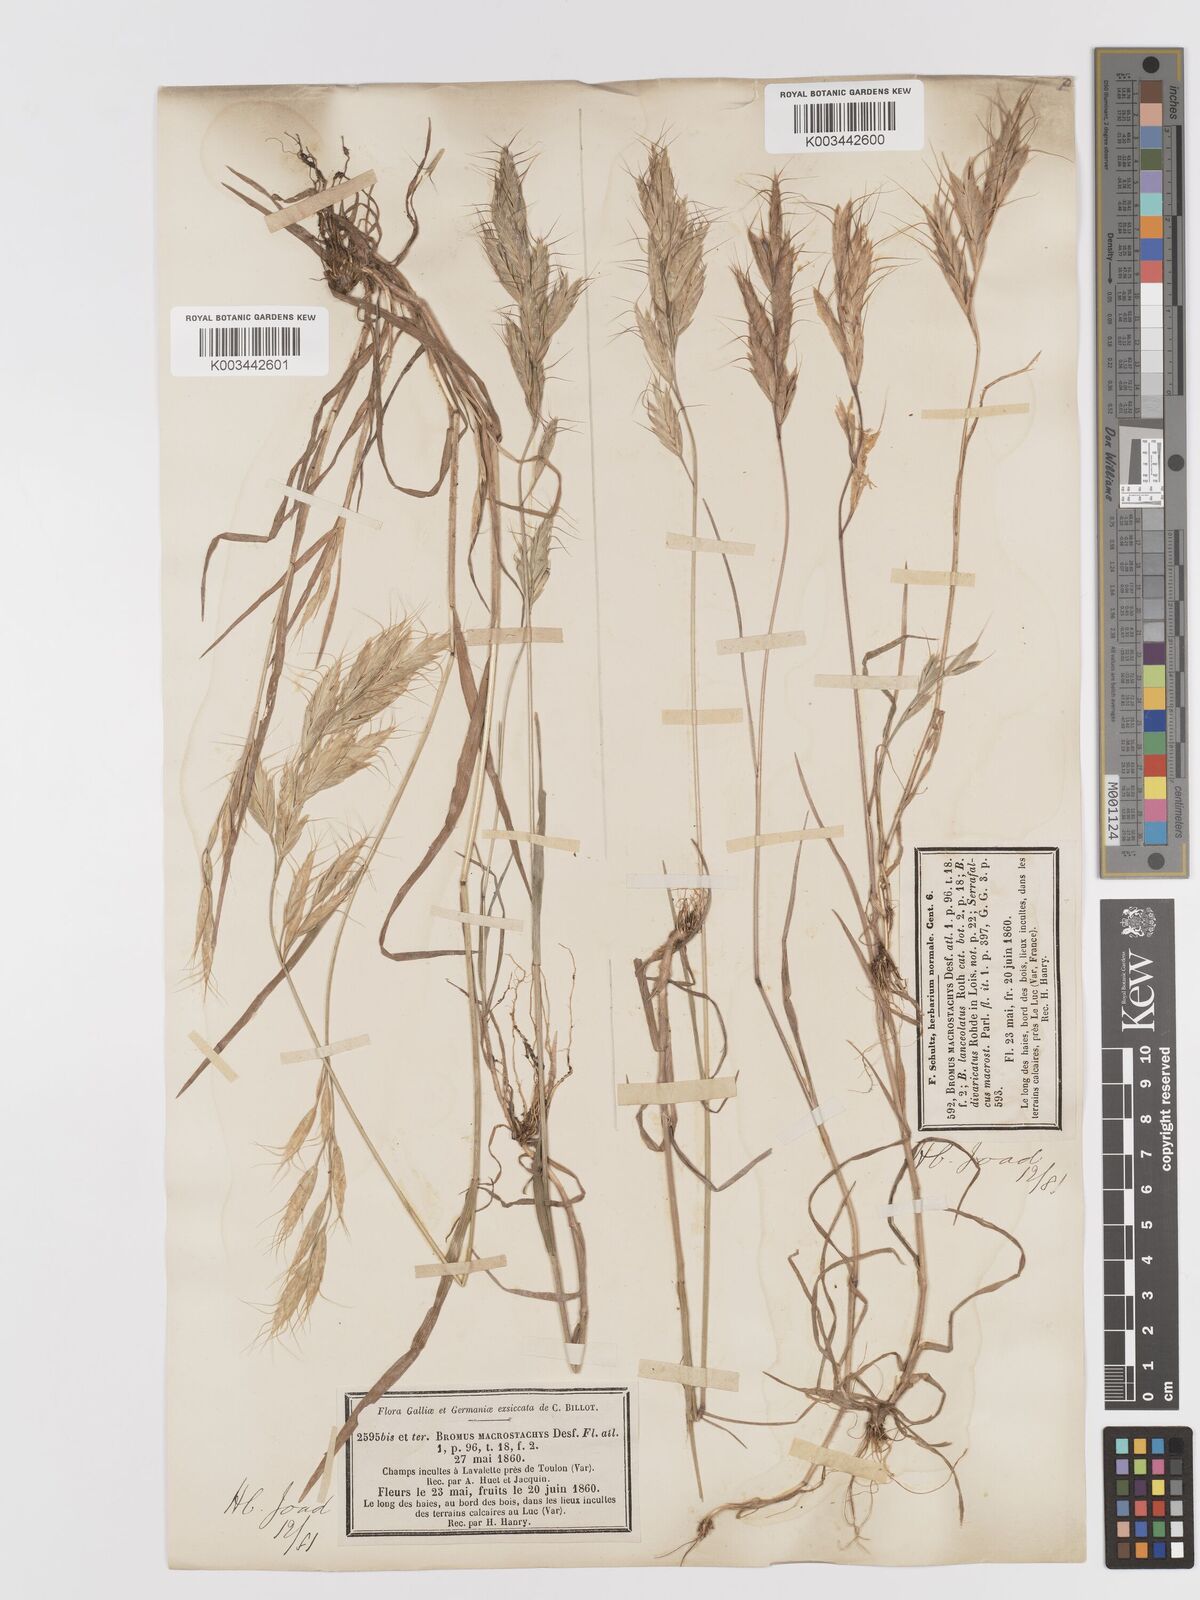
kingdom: Plantae
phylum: Tracheophyta
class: Liliopsida
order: Poales
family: Poaceae
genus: Bromus
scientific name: Bromus lanceolatus
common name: Mediterranean brome
